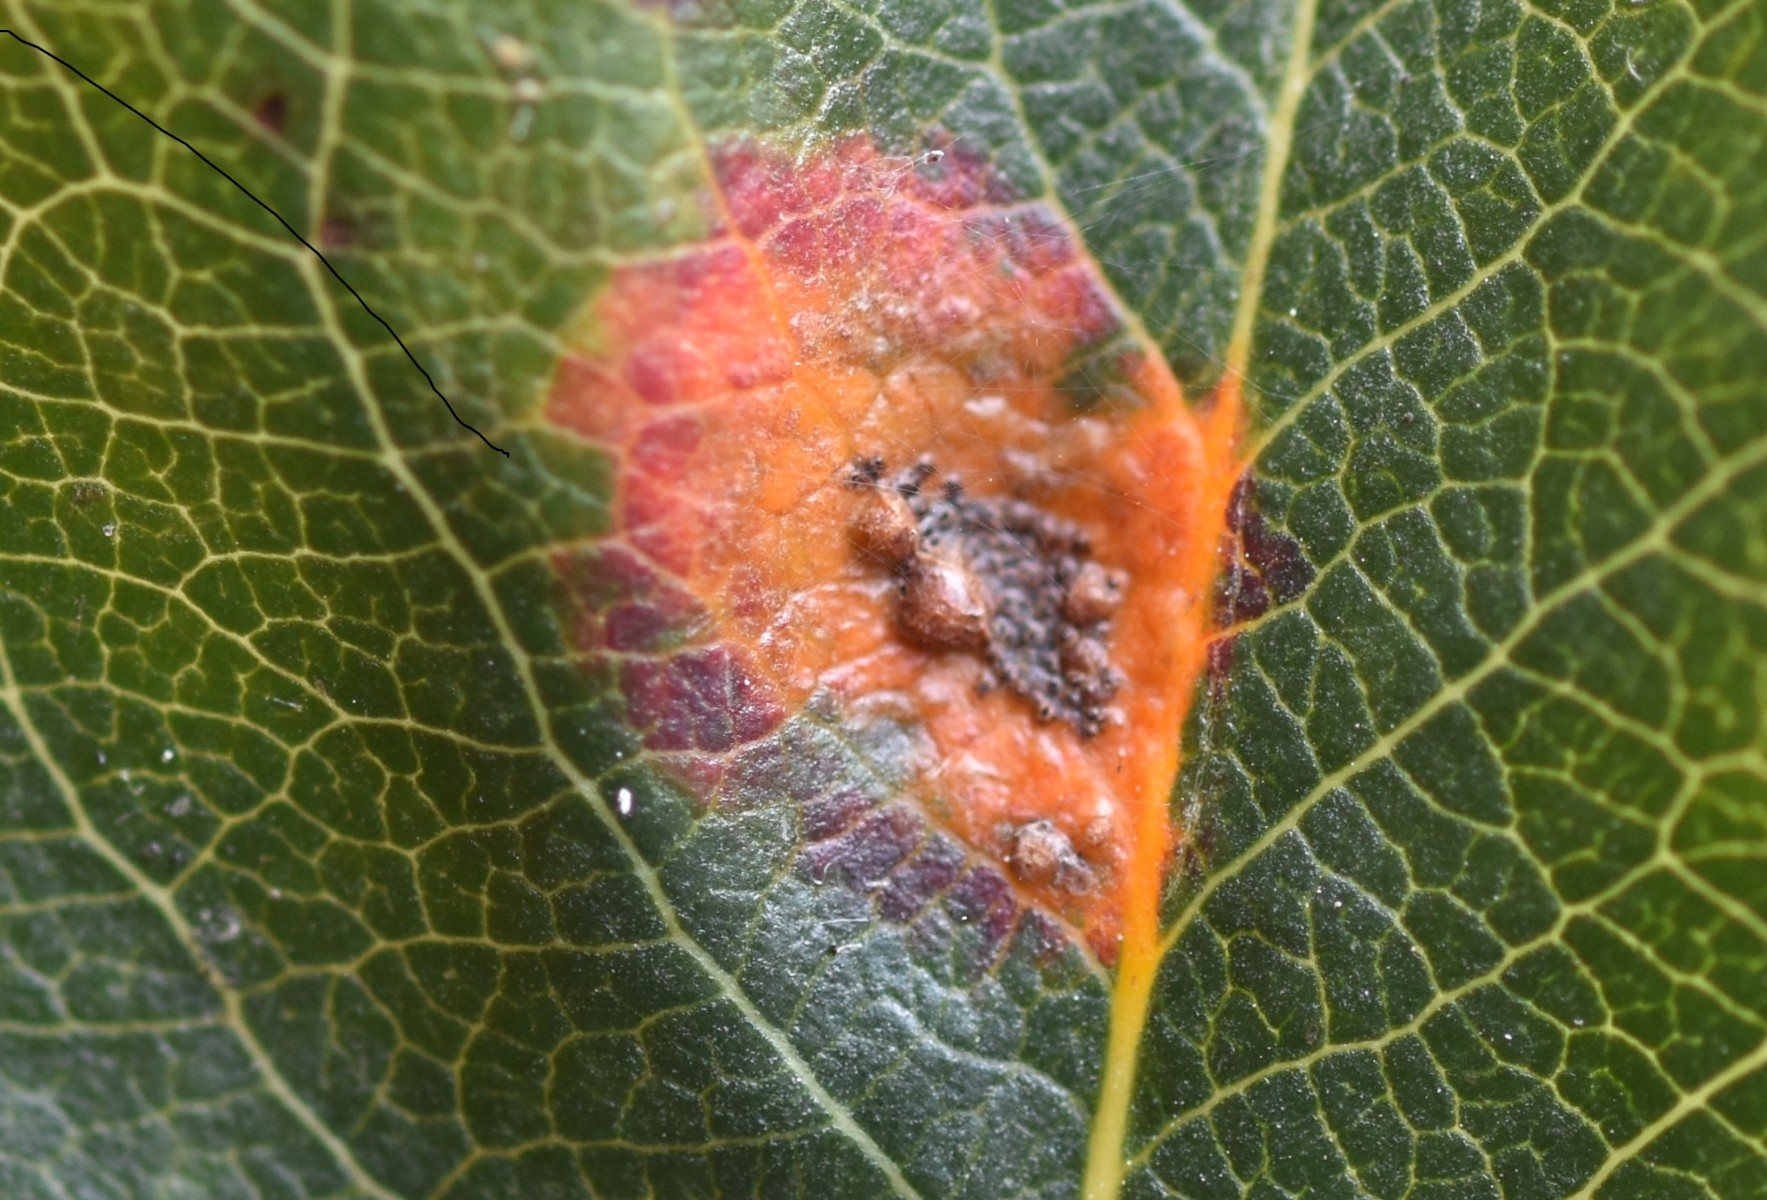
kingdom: Fungi
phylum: Basidiomycota
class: Pucciniomycetes
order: Pucciniales
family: Gymnosporangiaceae
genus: Gymnosporangium
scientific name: Gymnosporangium sabinae
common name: pæregitter-bævrerust
